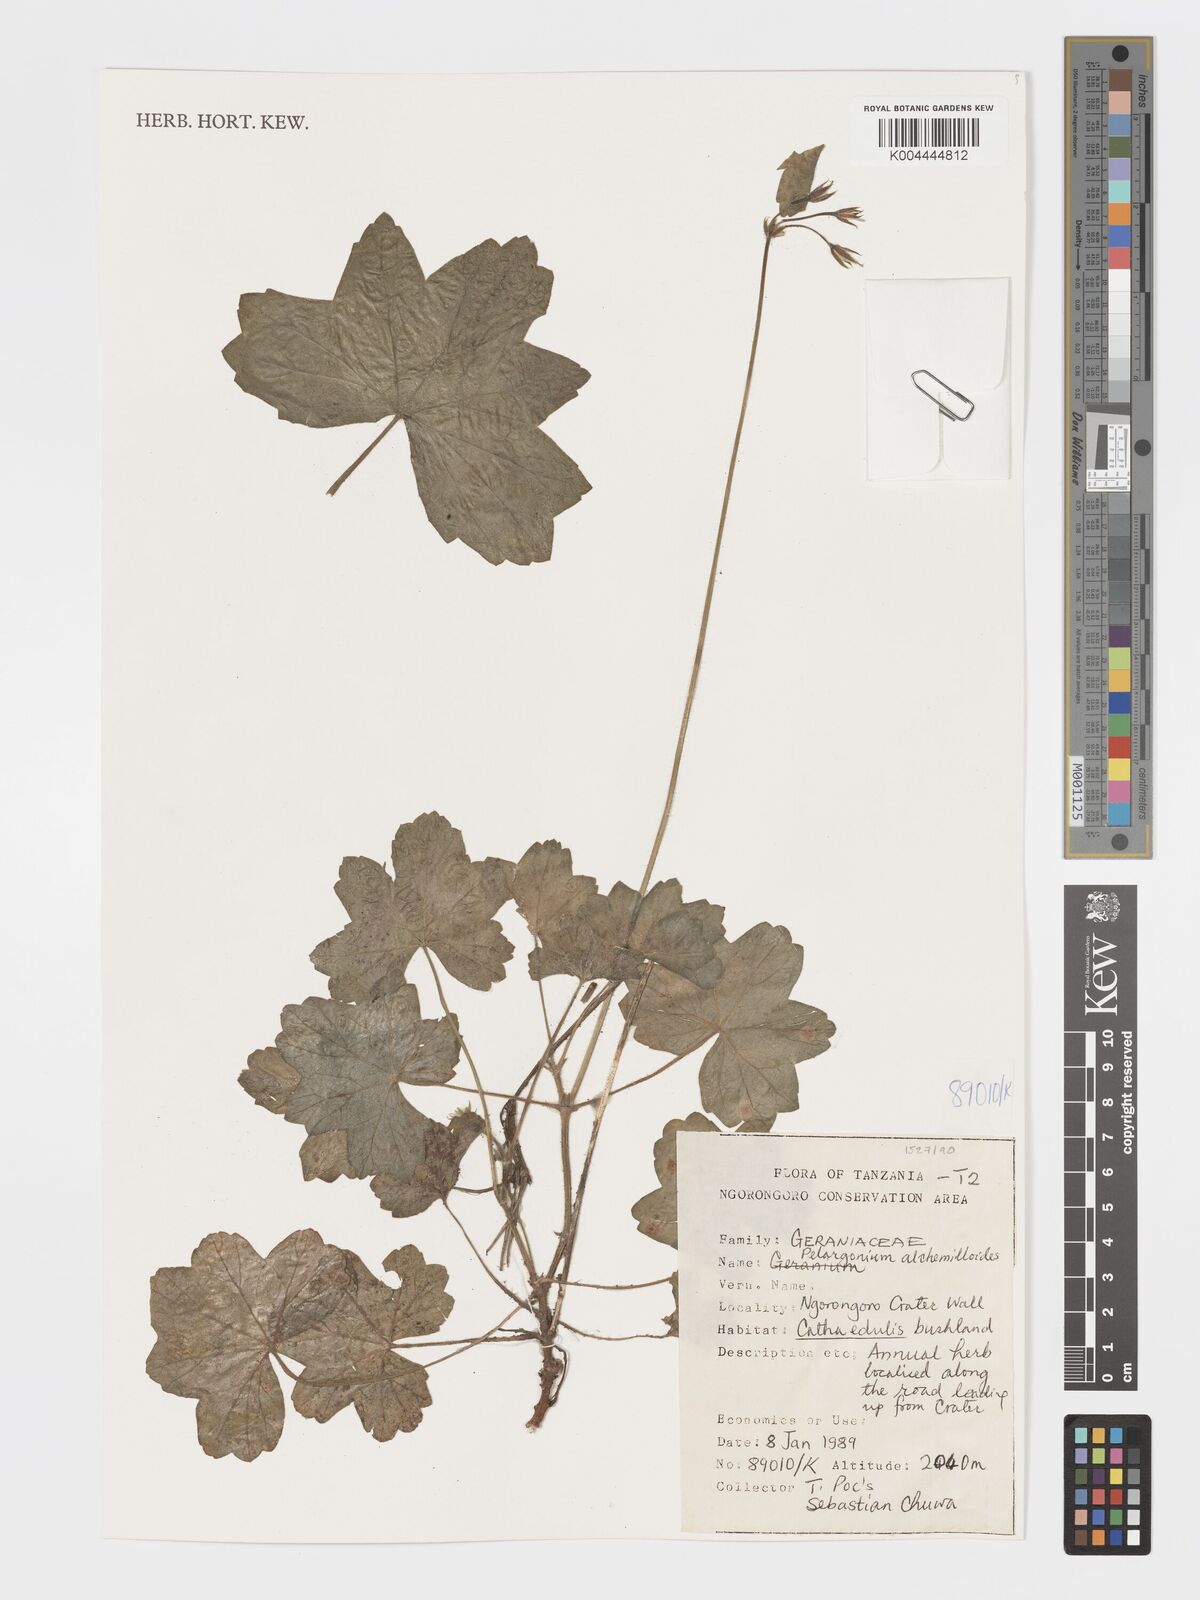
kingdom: Plantae
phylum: Tracheophyta
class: Magnoliopsida
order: Geraniales
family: Geraniaceae
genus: Pelargonium
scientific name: Pelargonium alchemilloides
